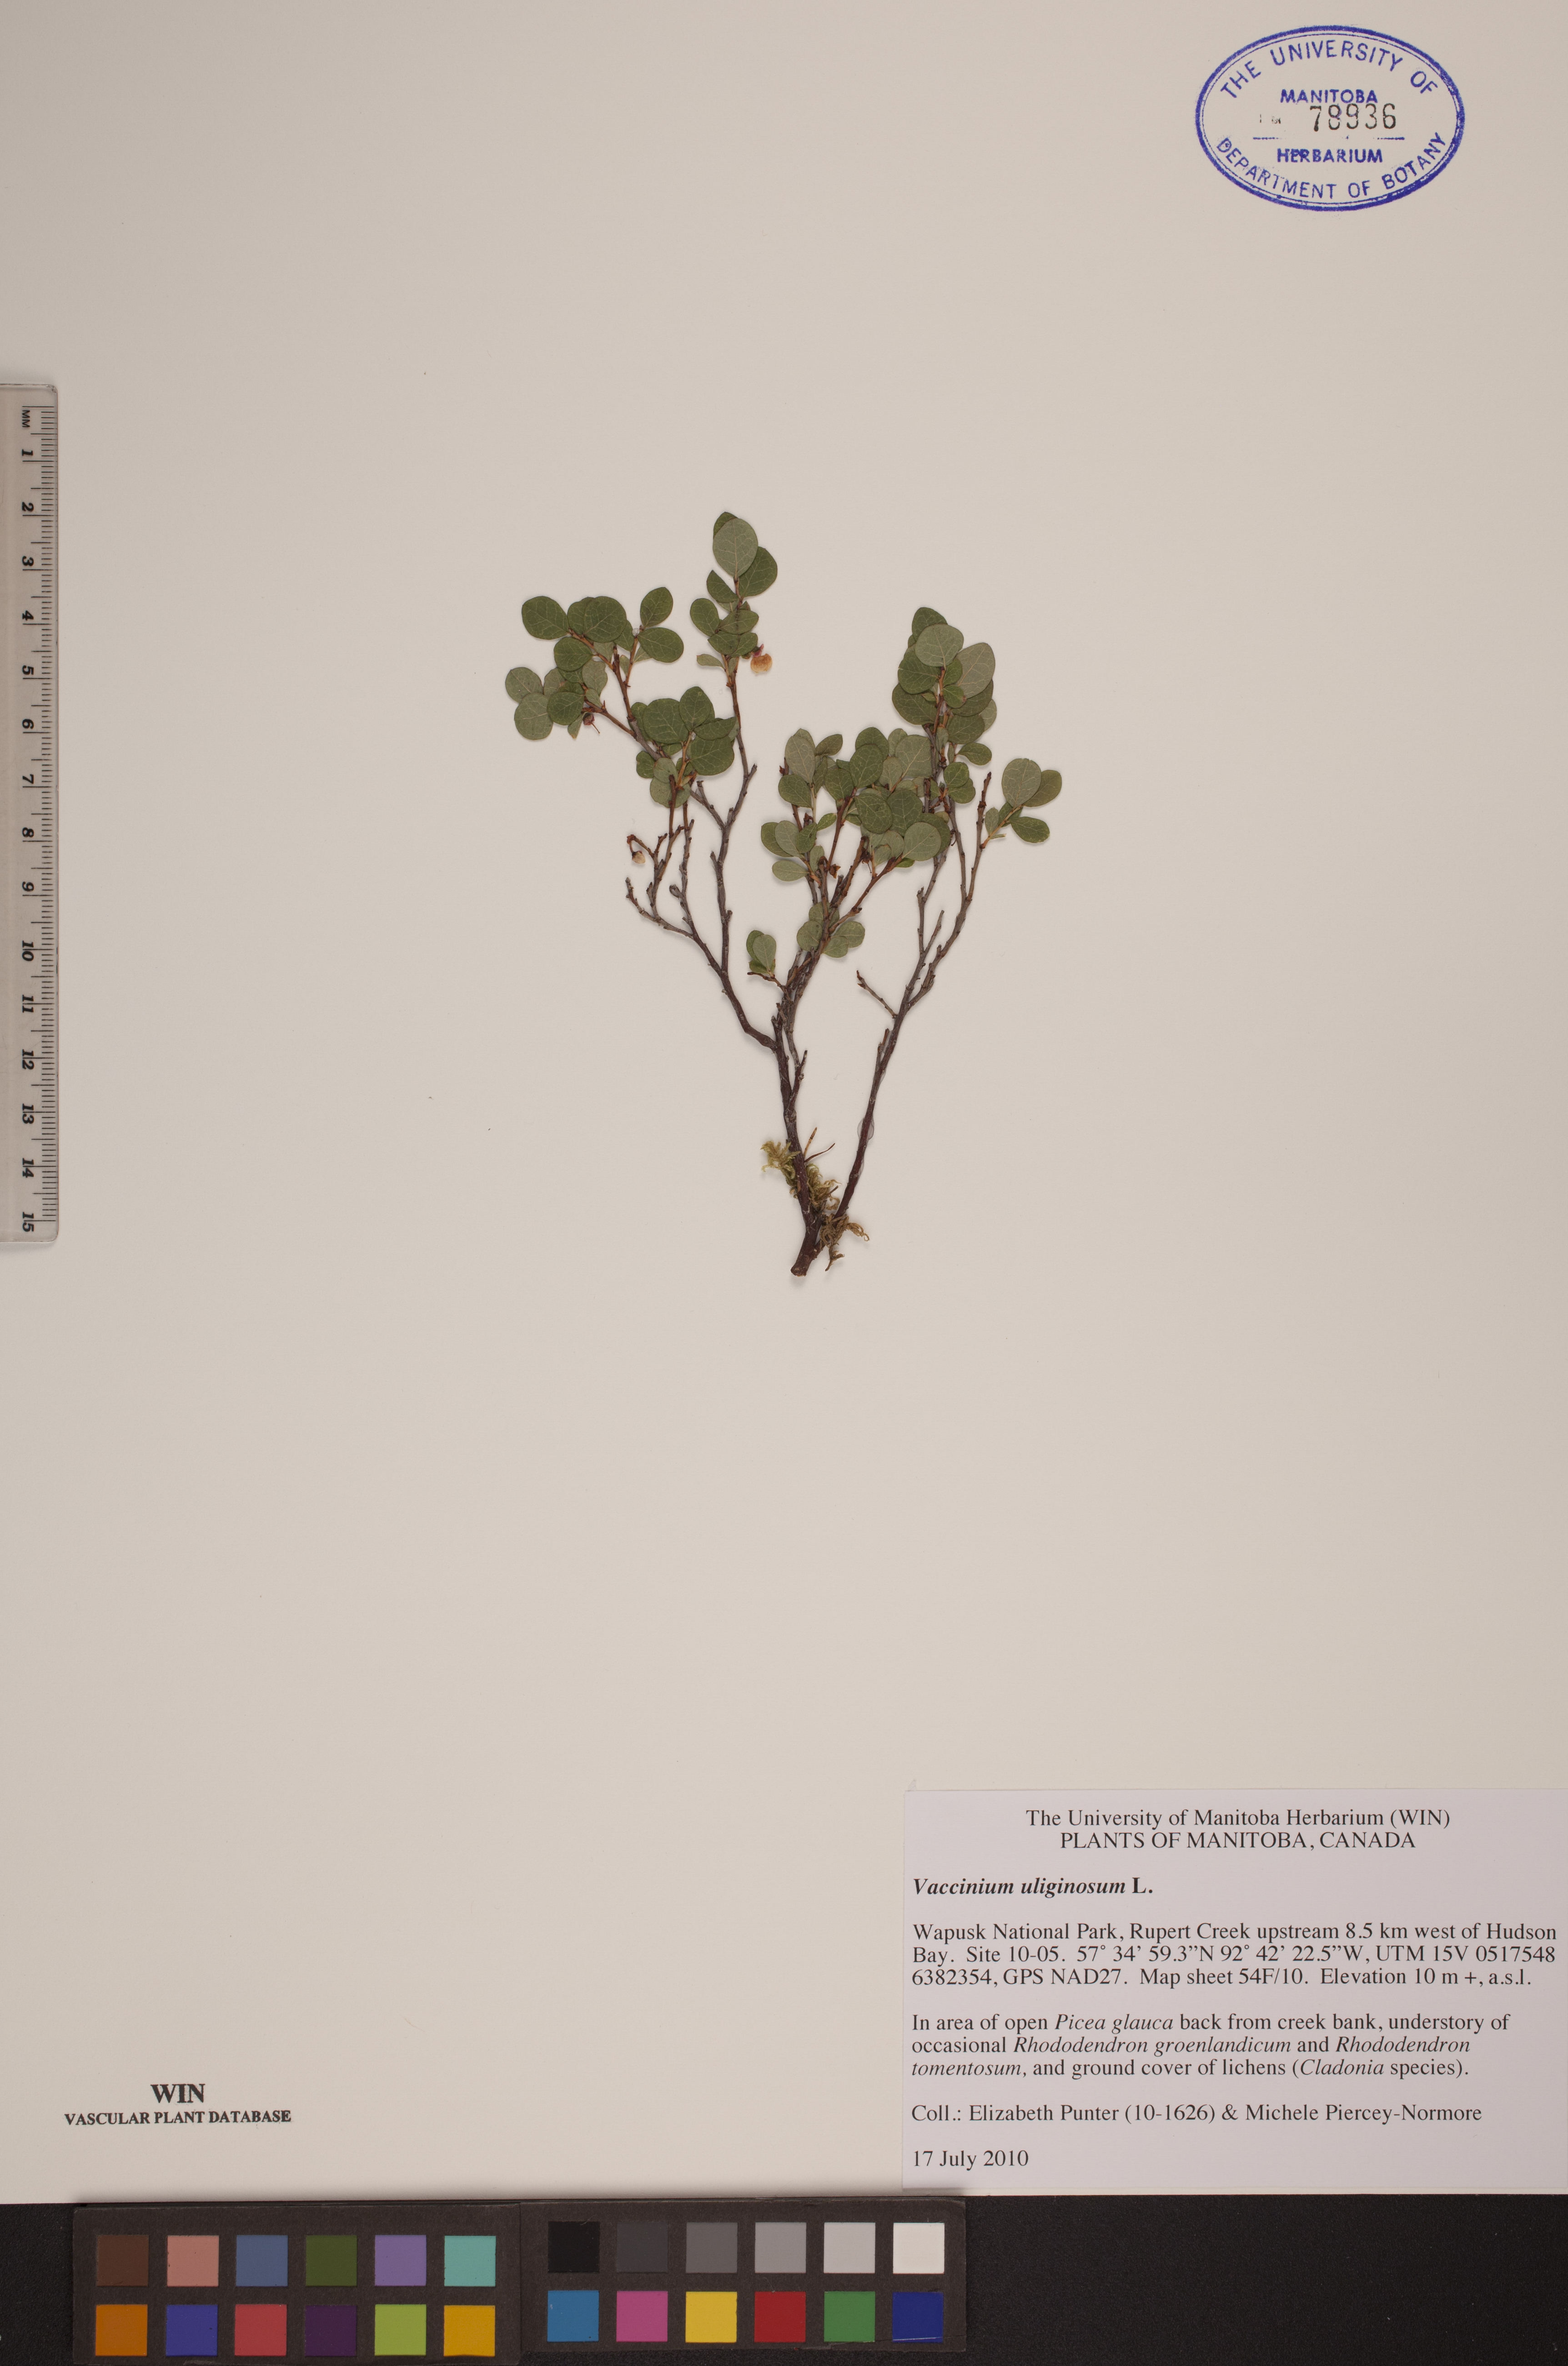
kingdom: Plantae
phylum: Tracheophyta
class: Magnoliopsida
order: Ericales
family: Ericaceae
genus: Vaccinium
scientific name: Vaccinium uliginosum
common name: Bog bilberry
